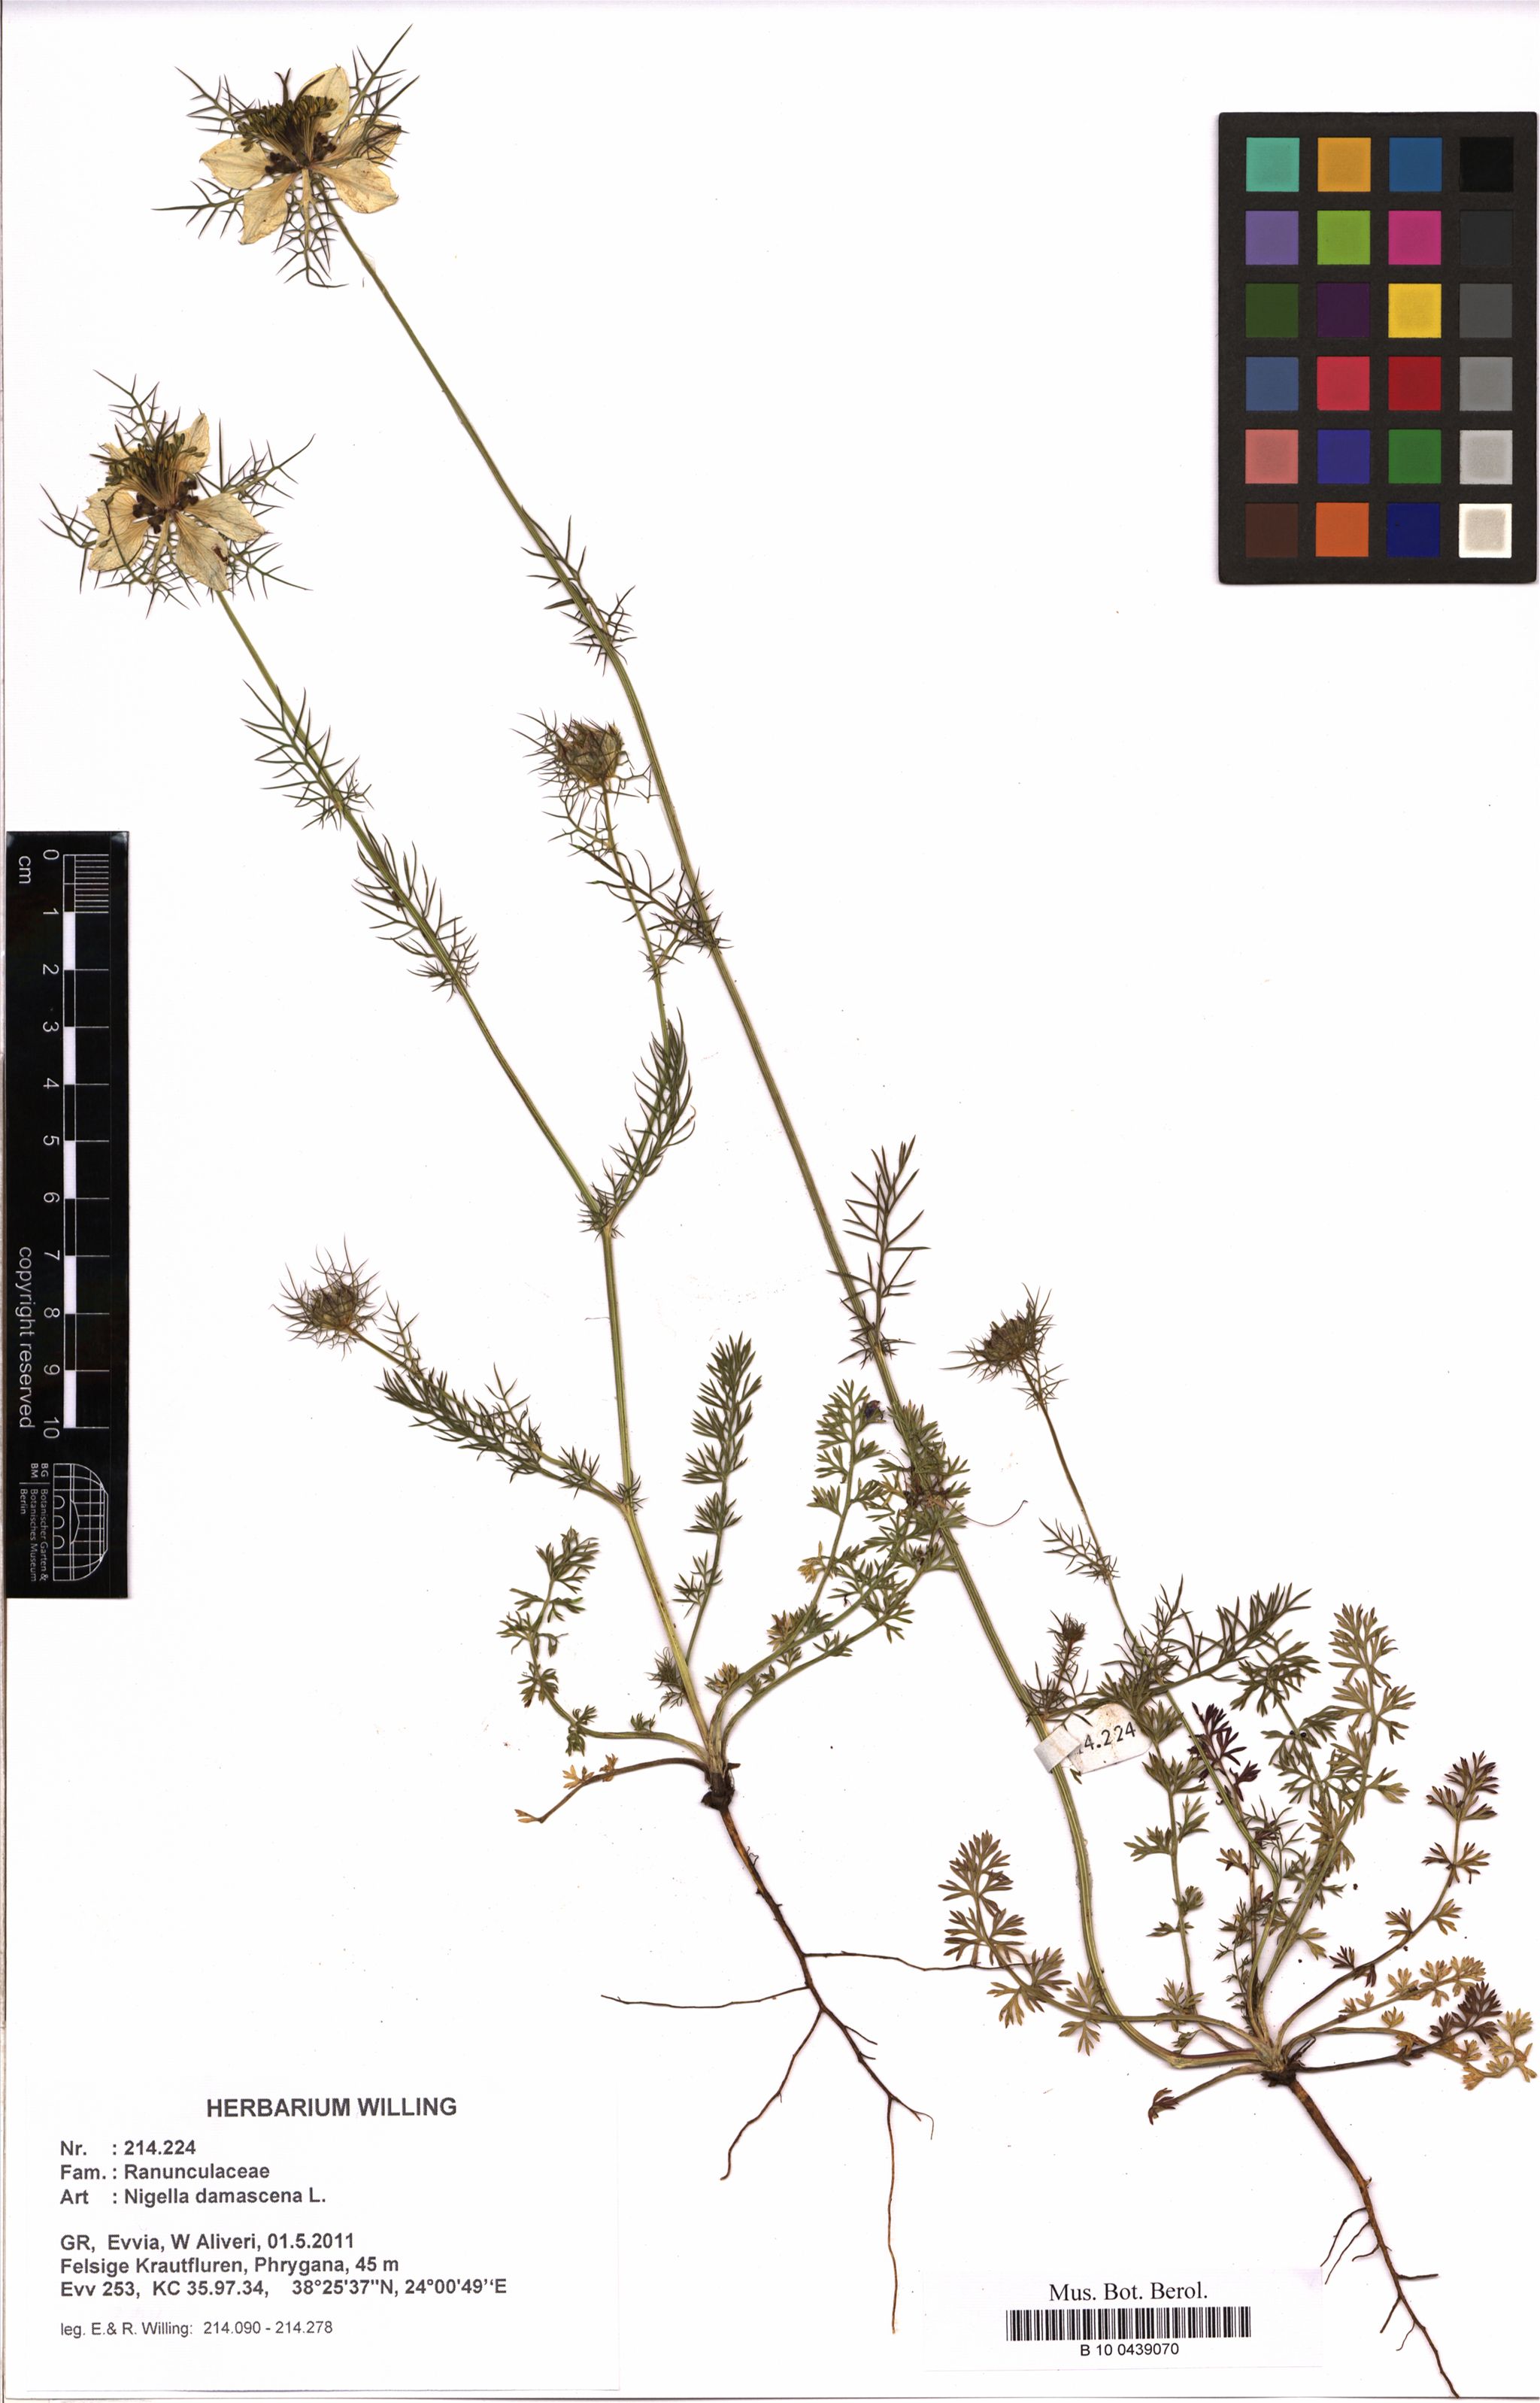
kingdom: Plantae
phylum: Tracheophyta
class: Magnoliopsida
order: Ranunculales
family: Ranunculaceae
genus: Nigella
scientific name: Nigella damascena
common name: Love-in-a-mist
